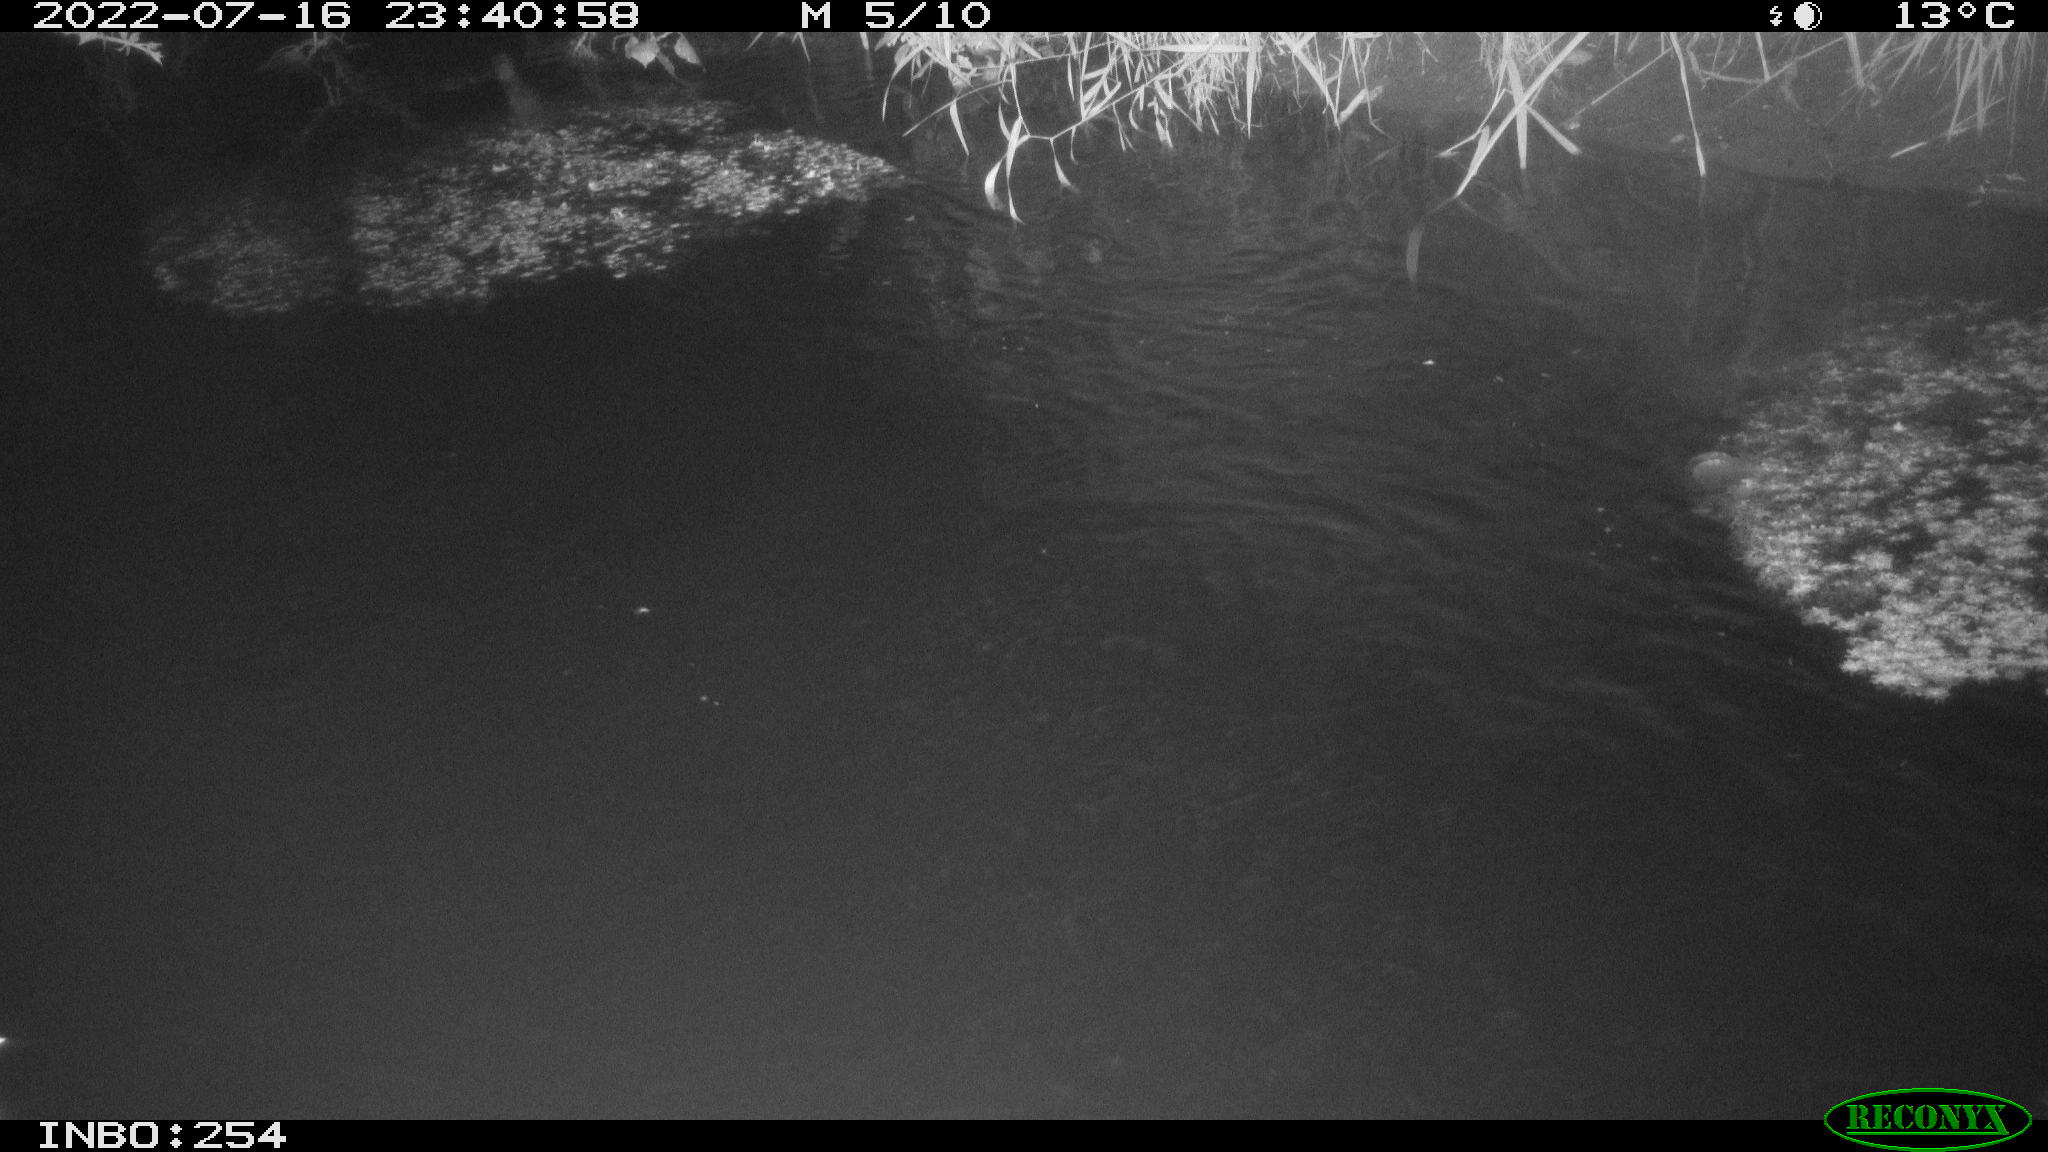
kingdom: Animalia
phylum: Chordata
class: Aves
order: Anseriformes
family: Anatidae
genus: Anas
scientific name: Anas platyrhynchos
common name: Mallard
